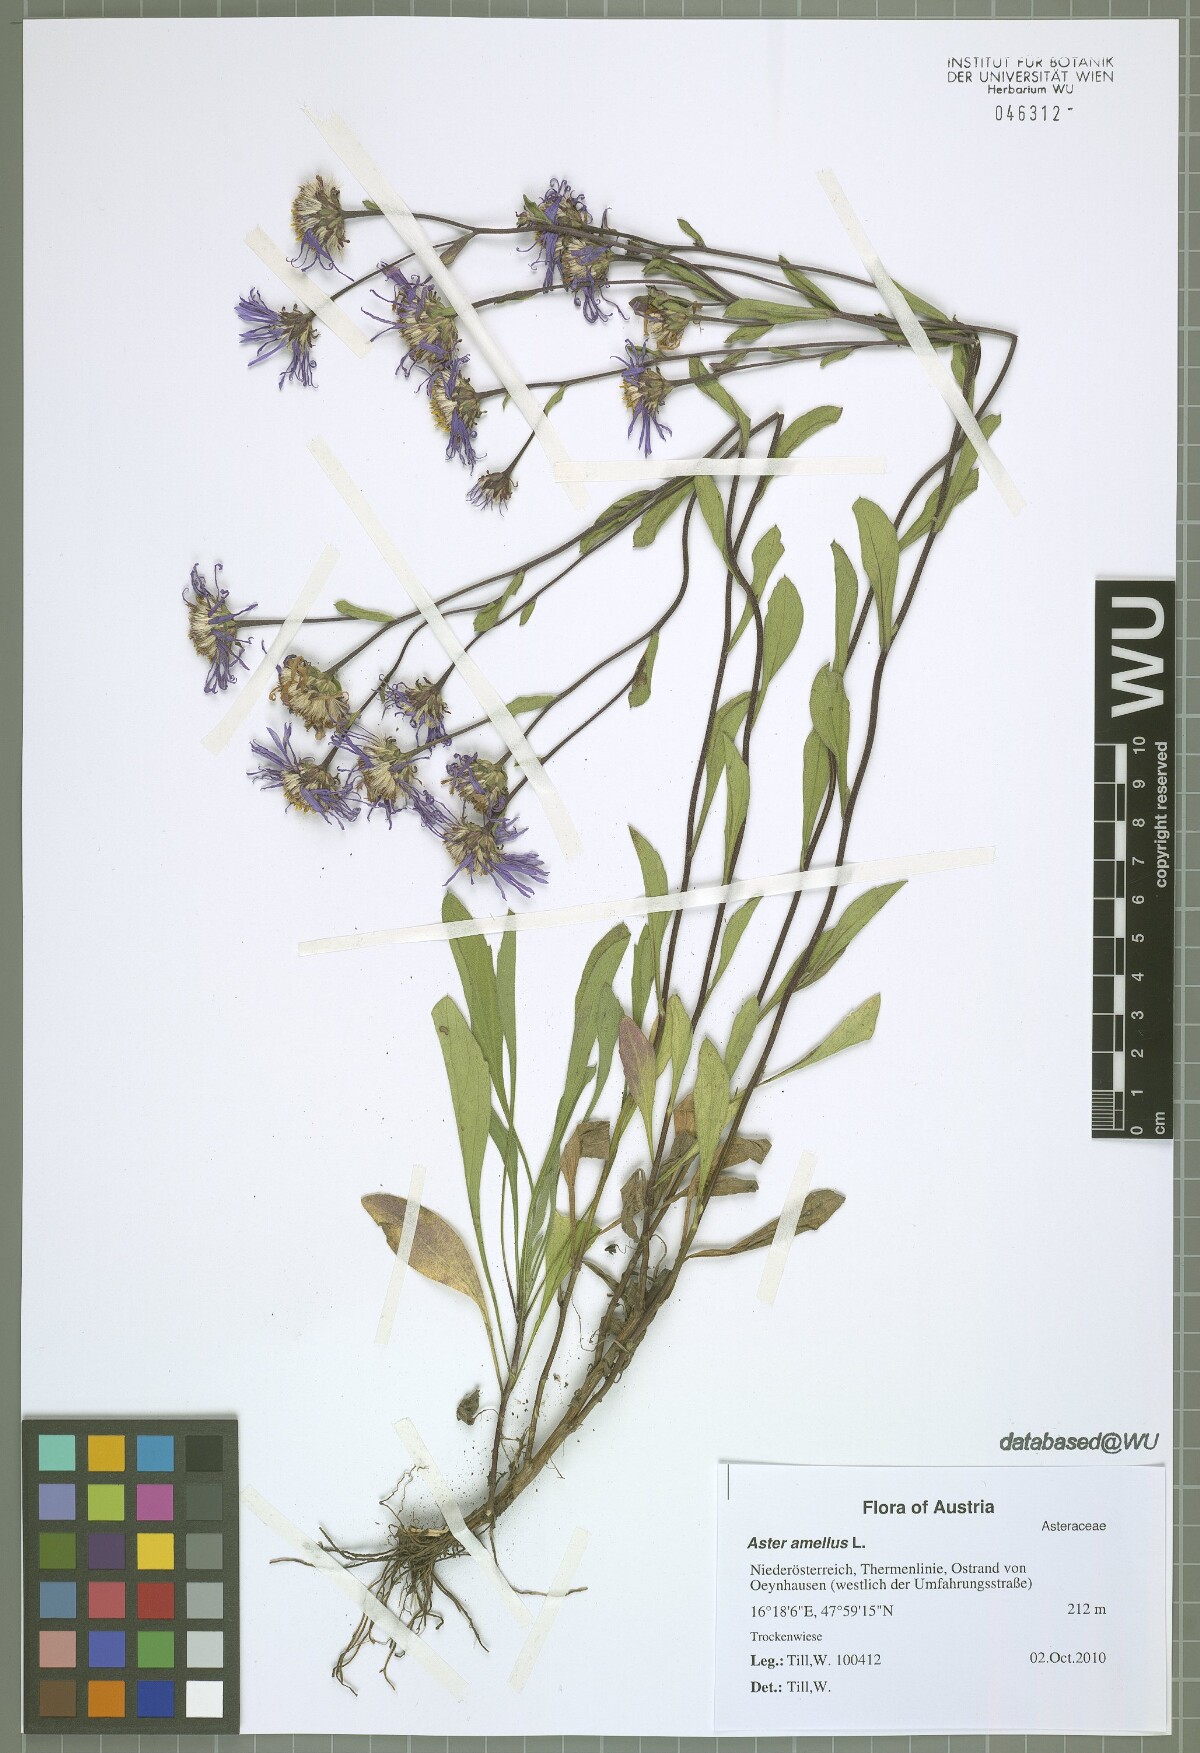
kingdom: Plantae
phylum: Tracheophyta
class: Magnoliopsida
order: Asterales
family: Asteraceae
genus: Aster
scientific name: Aster amellus
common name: European michaelmas daisy
